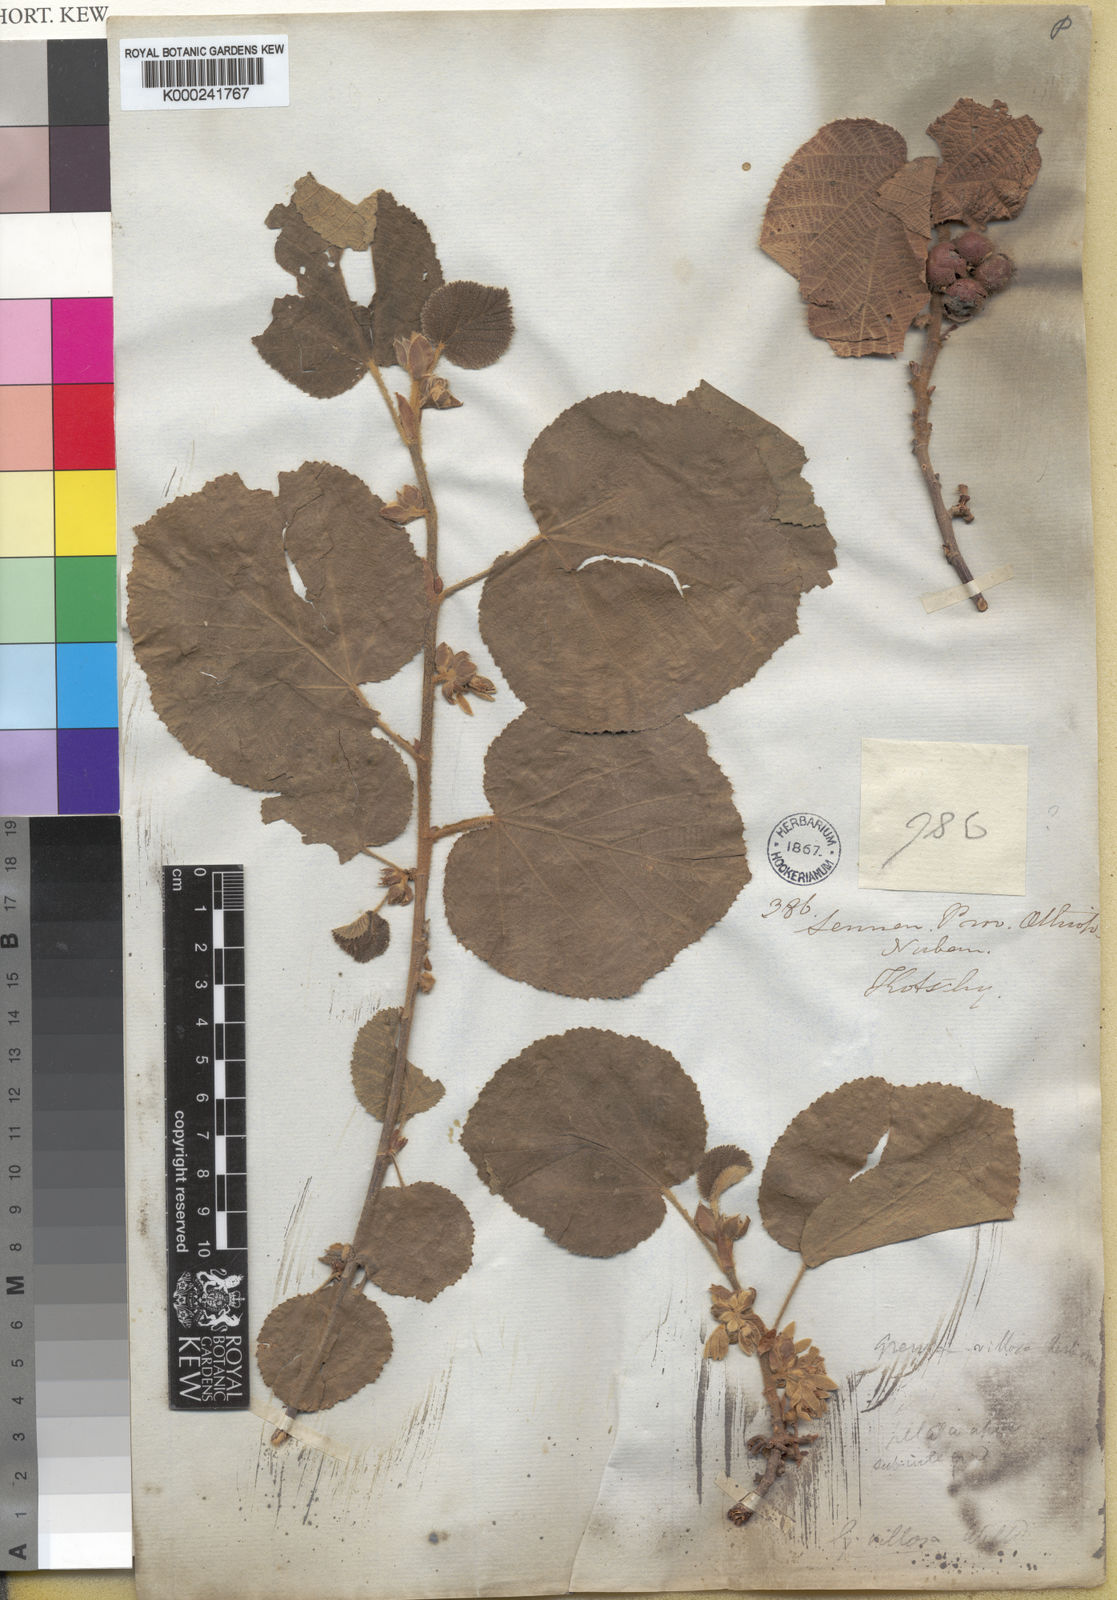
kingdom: Plantae
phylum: Tracheophyta
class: Magnoliopsida
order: Malvales
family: Malvaceae
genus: Grewia
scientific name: Grewia villosa
